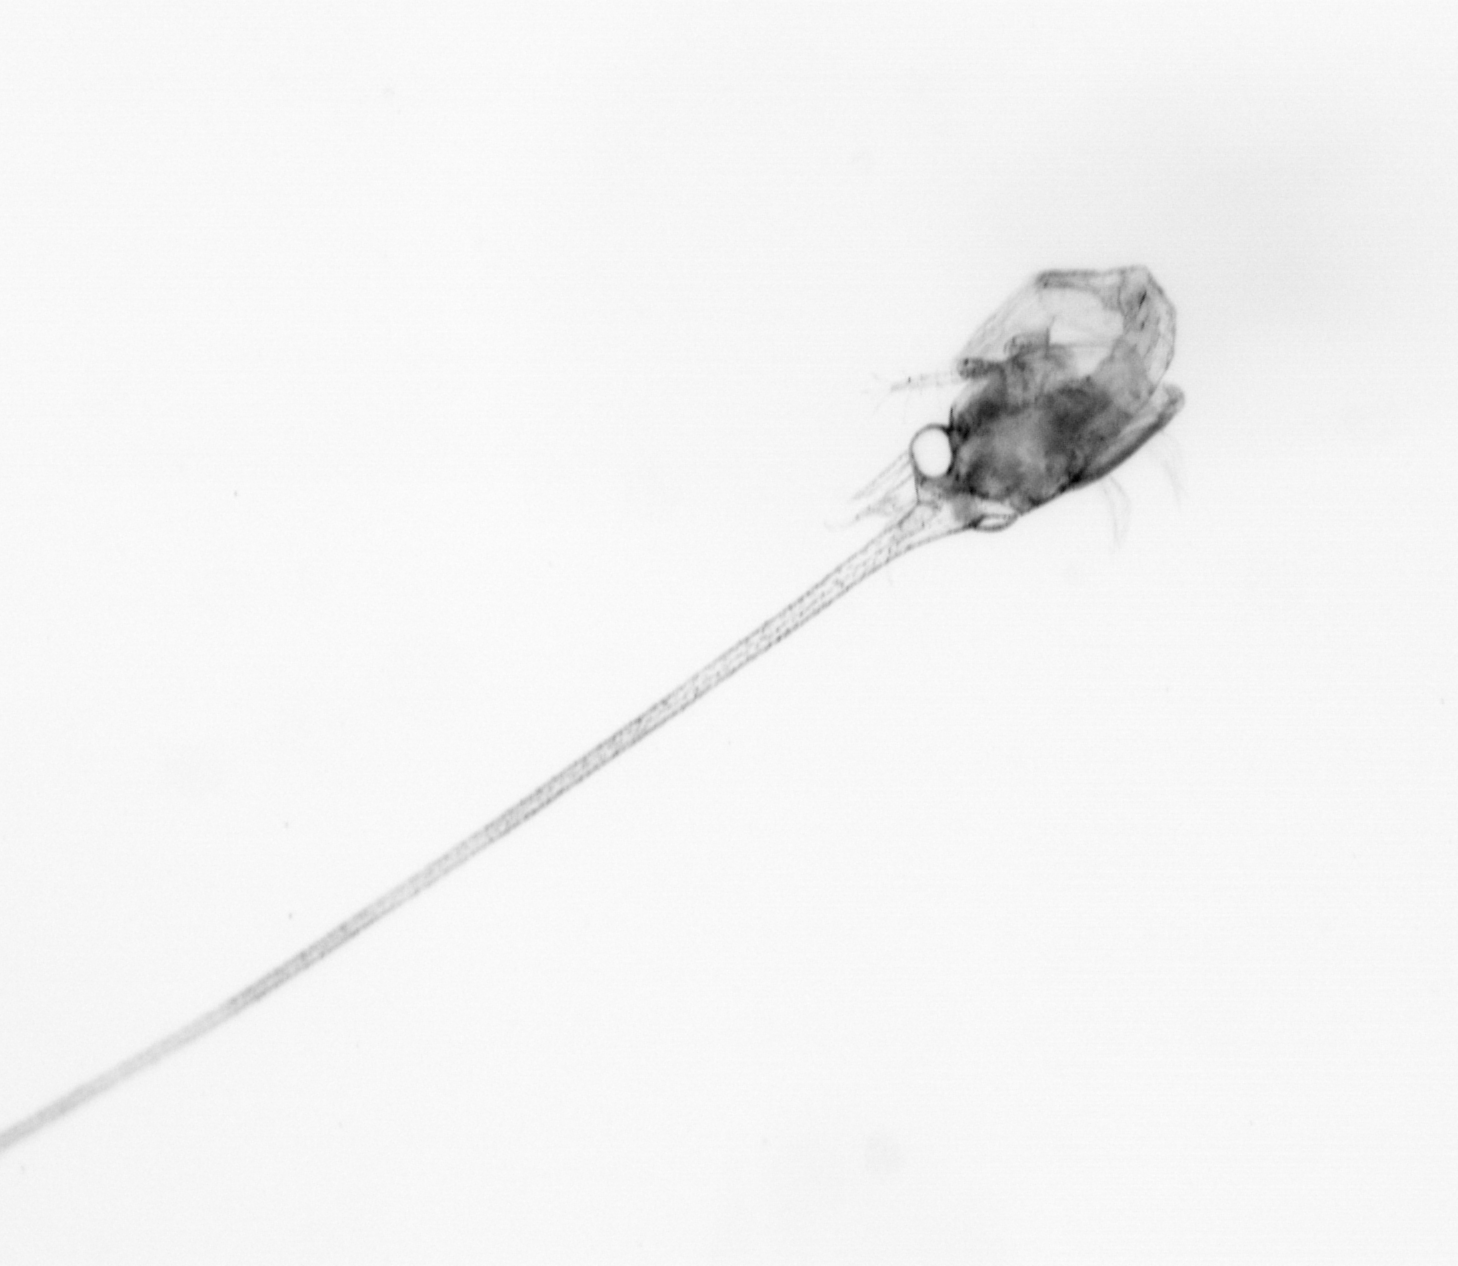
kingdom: Animalia
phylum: Arthropoda
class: Malacostraca
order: Decapoda
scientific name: Decapoda
